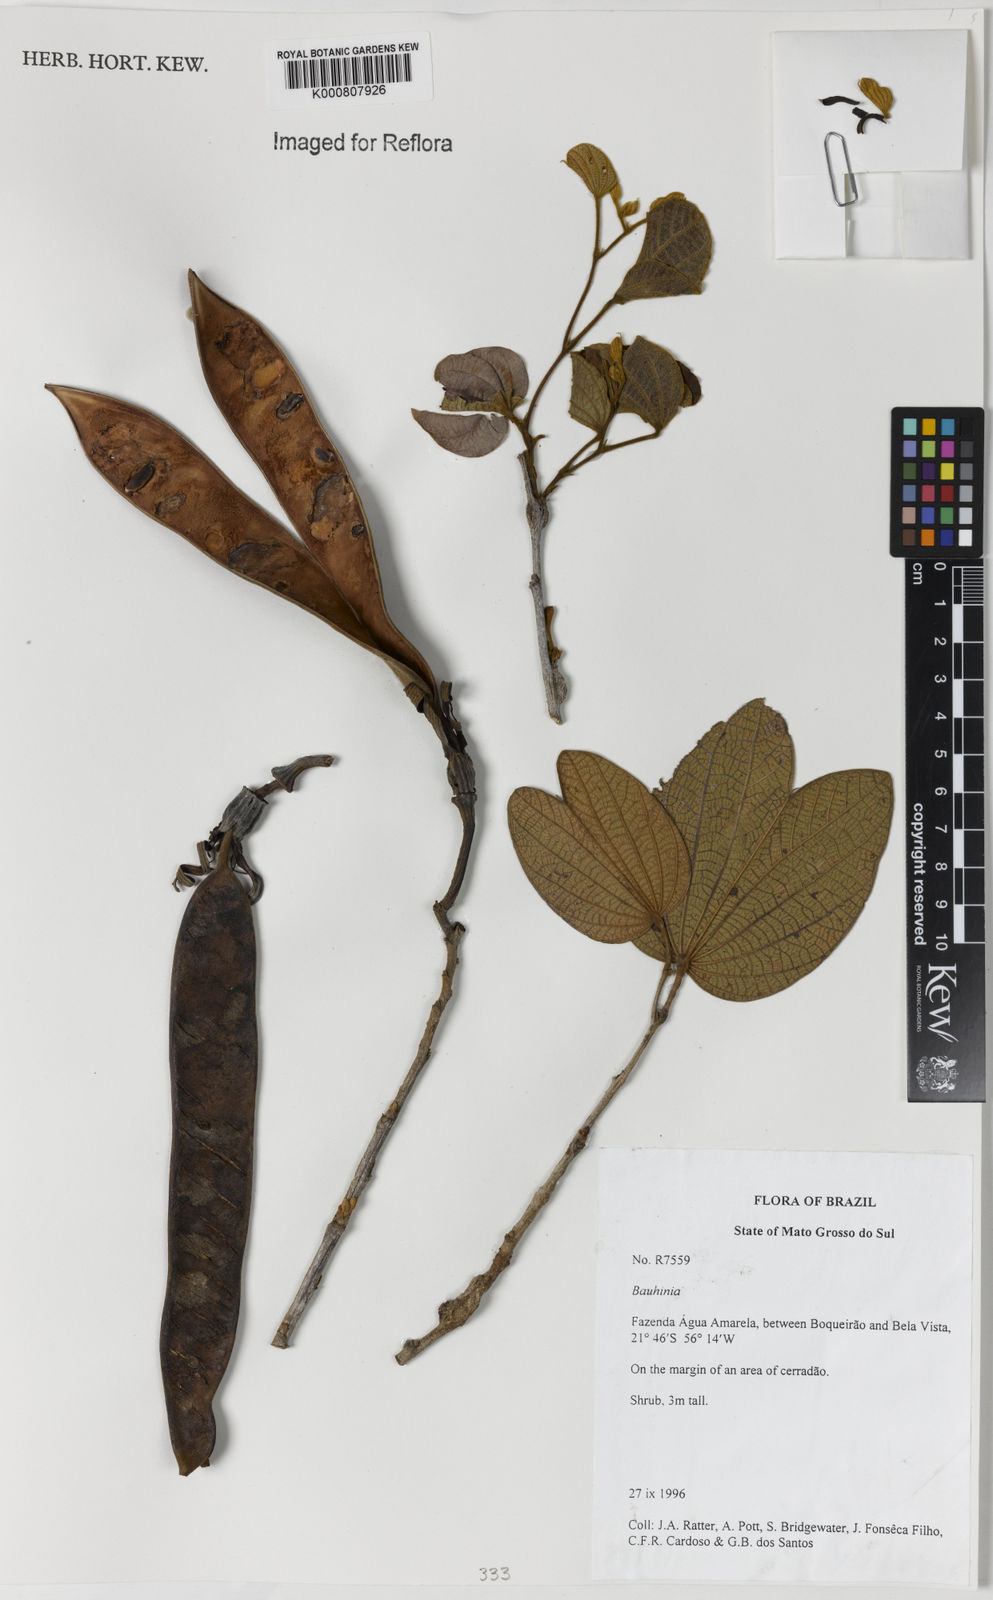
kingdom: Plantae
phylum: Tracheophyta
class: Magnoliopsida
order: Fabales
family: Fabaceae
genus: Bauhinia
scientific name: Bauhinia
